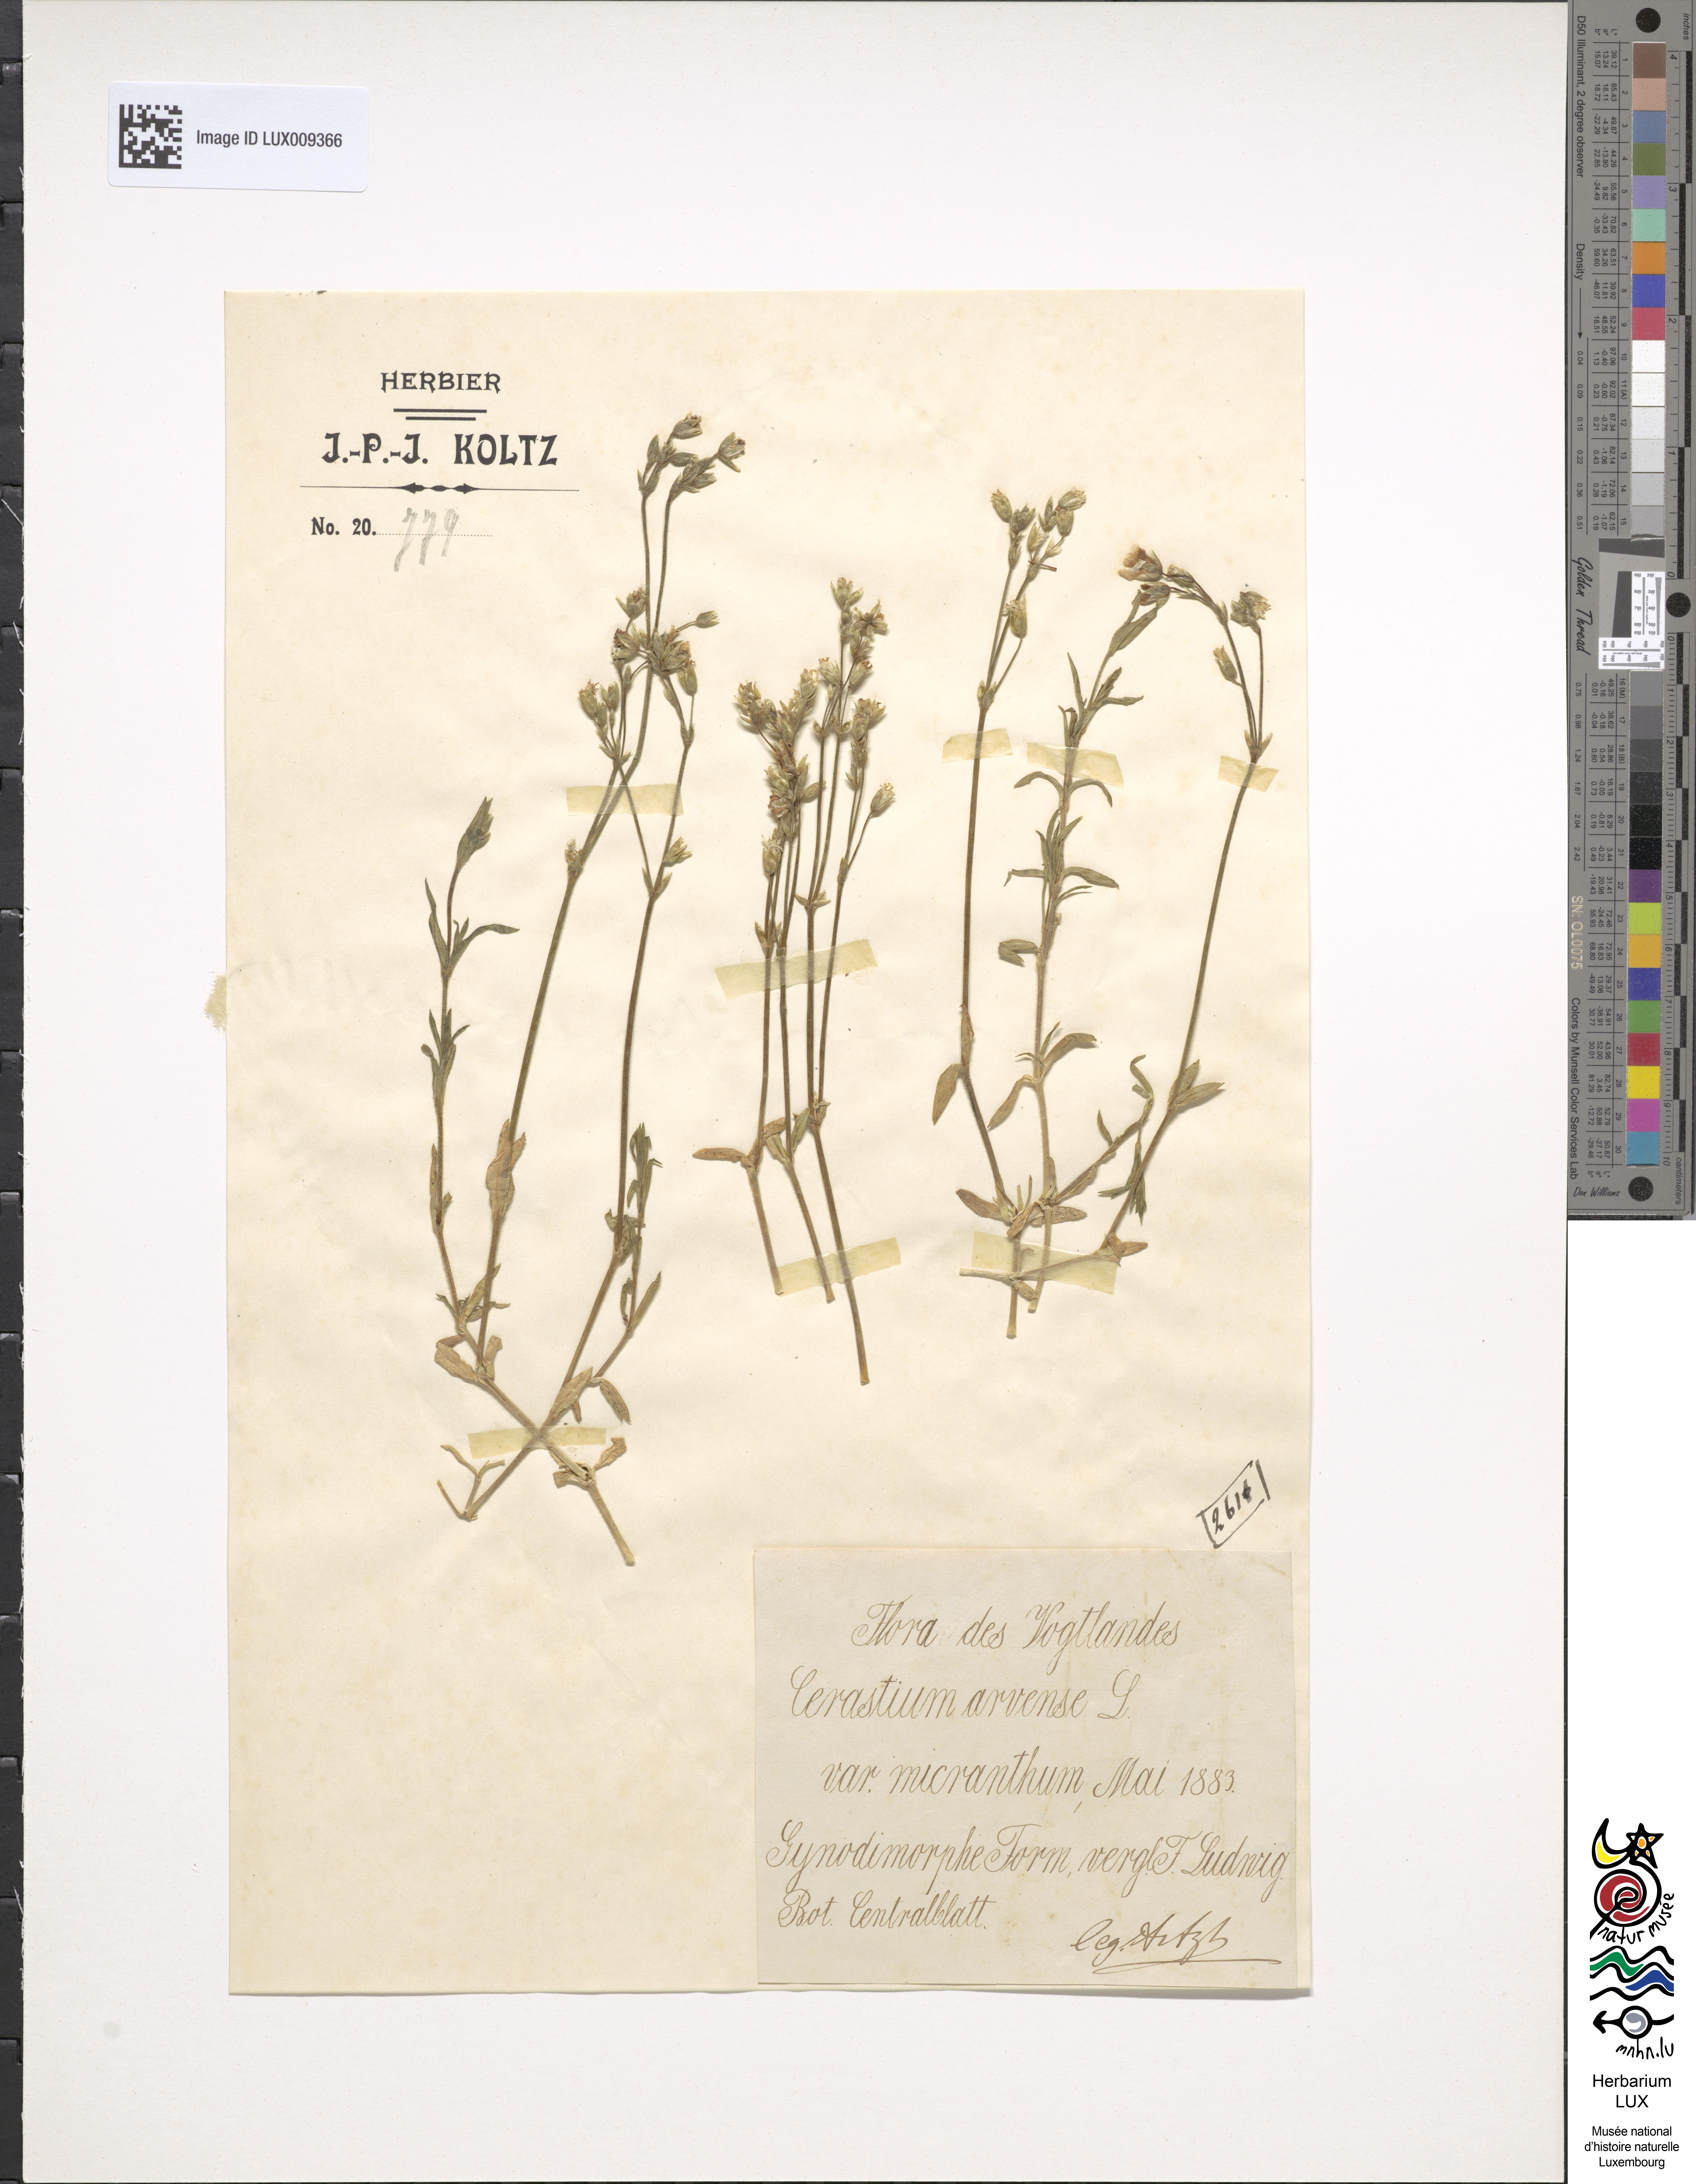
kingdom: Plantae
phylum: Tracheophyta
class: Magnoliopsida
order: Caryophyllales
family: Caryophyllaceae
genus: Cerastium
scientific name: Cerastium arvense
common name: Field mouse-ear
